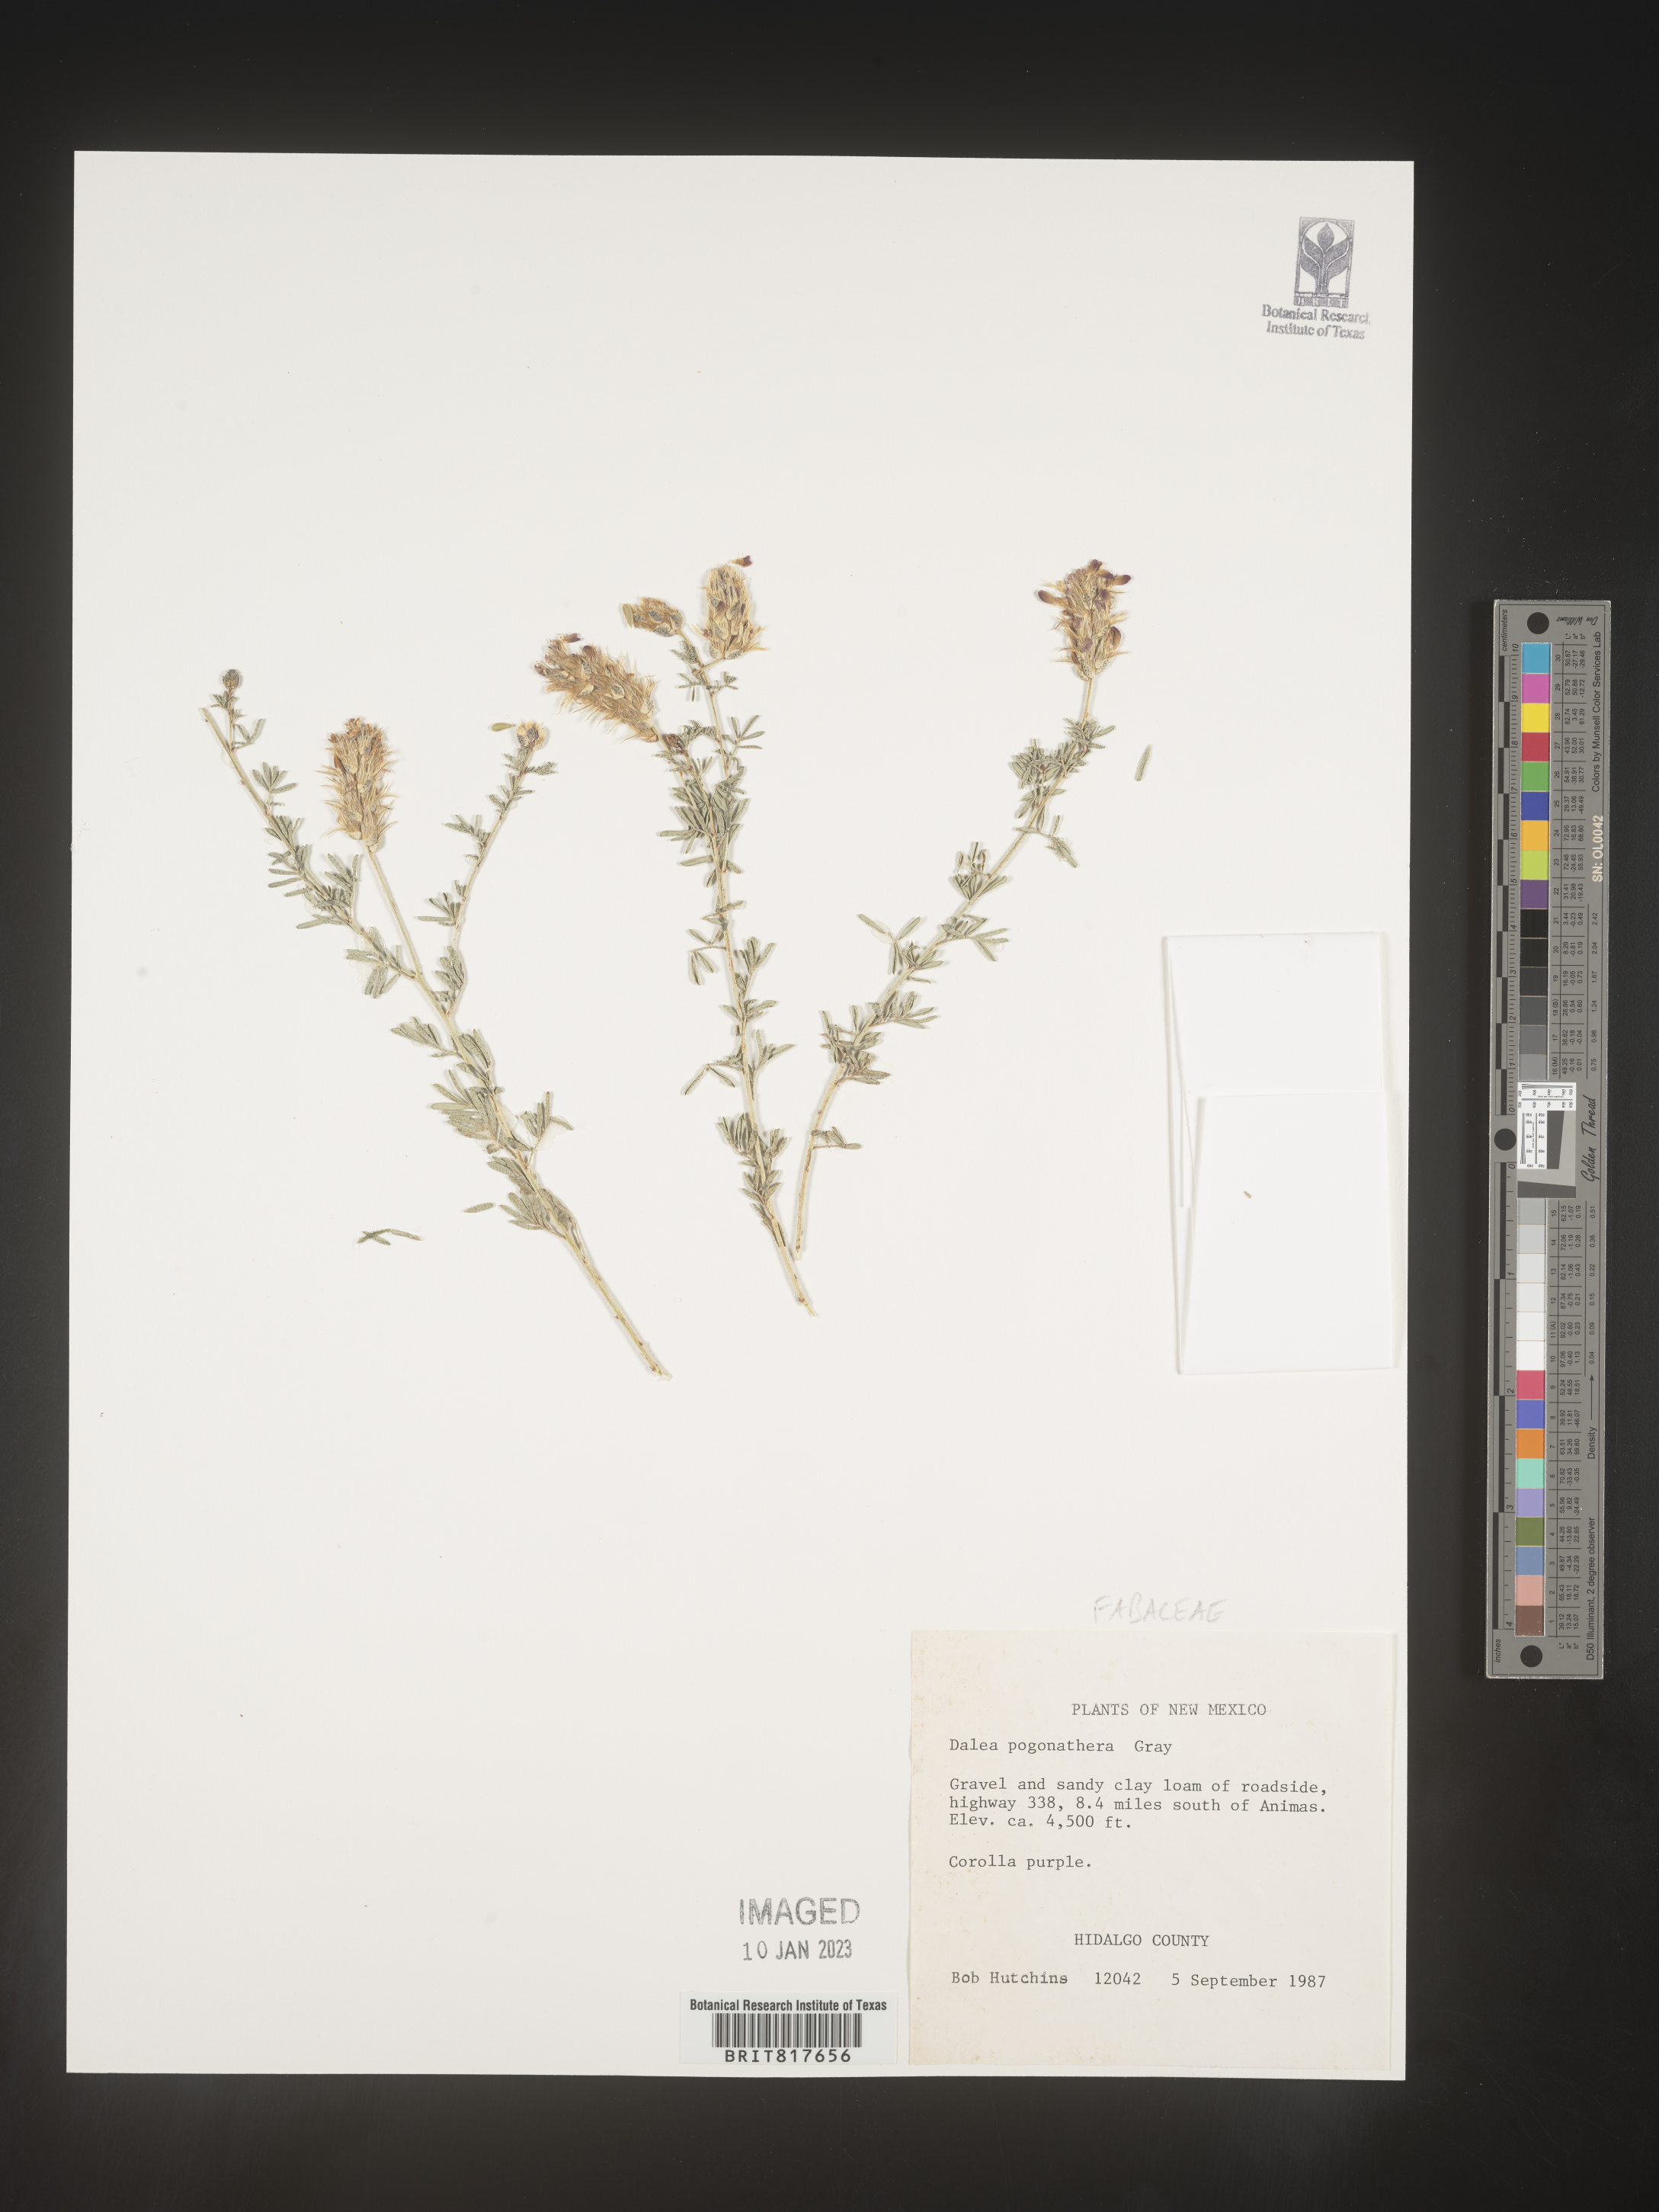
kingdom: Plantae
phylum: Tracheophyta
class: Magnoliopsida
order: Fabales
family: Fabaceae
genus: Dalea
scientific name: Dalea pogonathera
